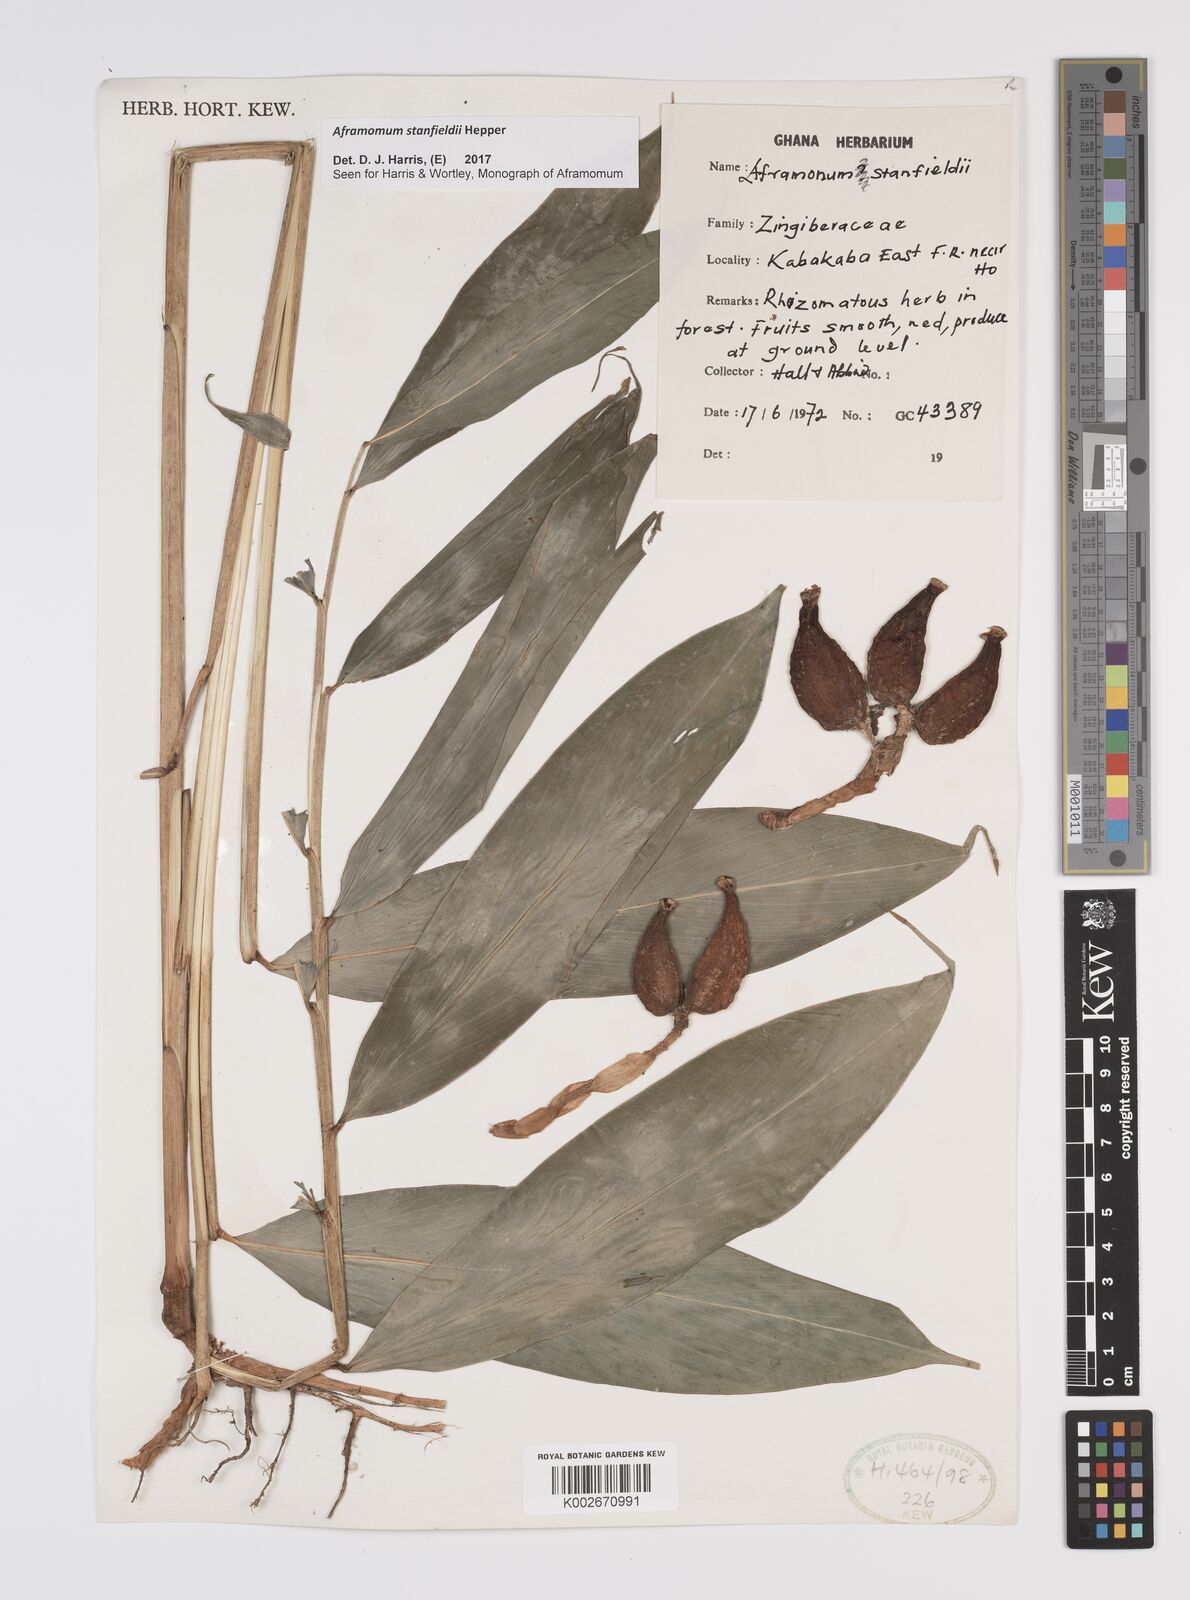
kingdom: Plantae
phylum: Tracheophyta
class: Liliopsida
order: Zingiberales
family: Zingiberaceae
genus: Aframomum
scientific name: Aframomum stanfieldii
